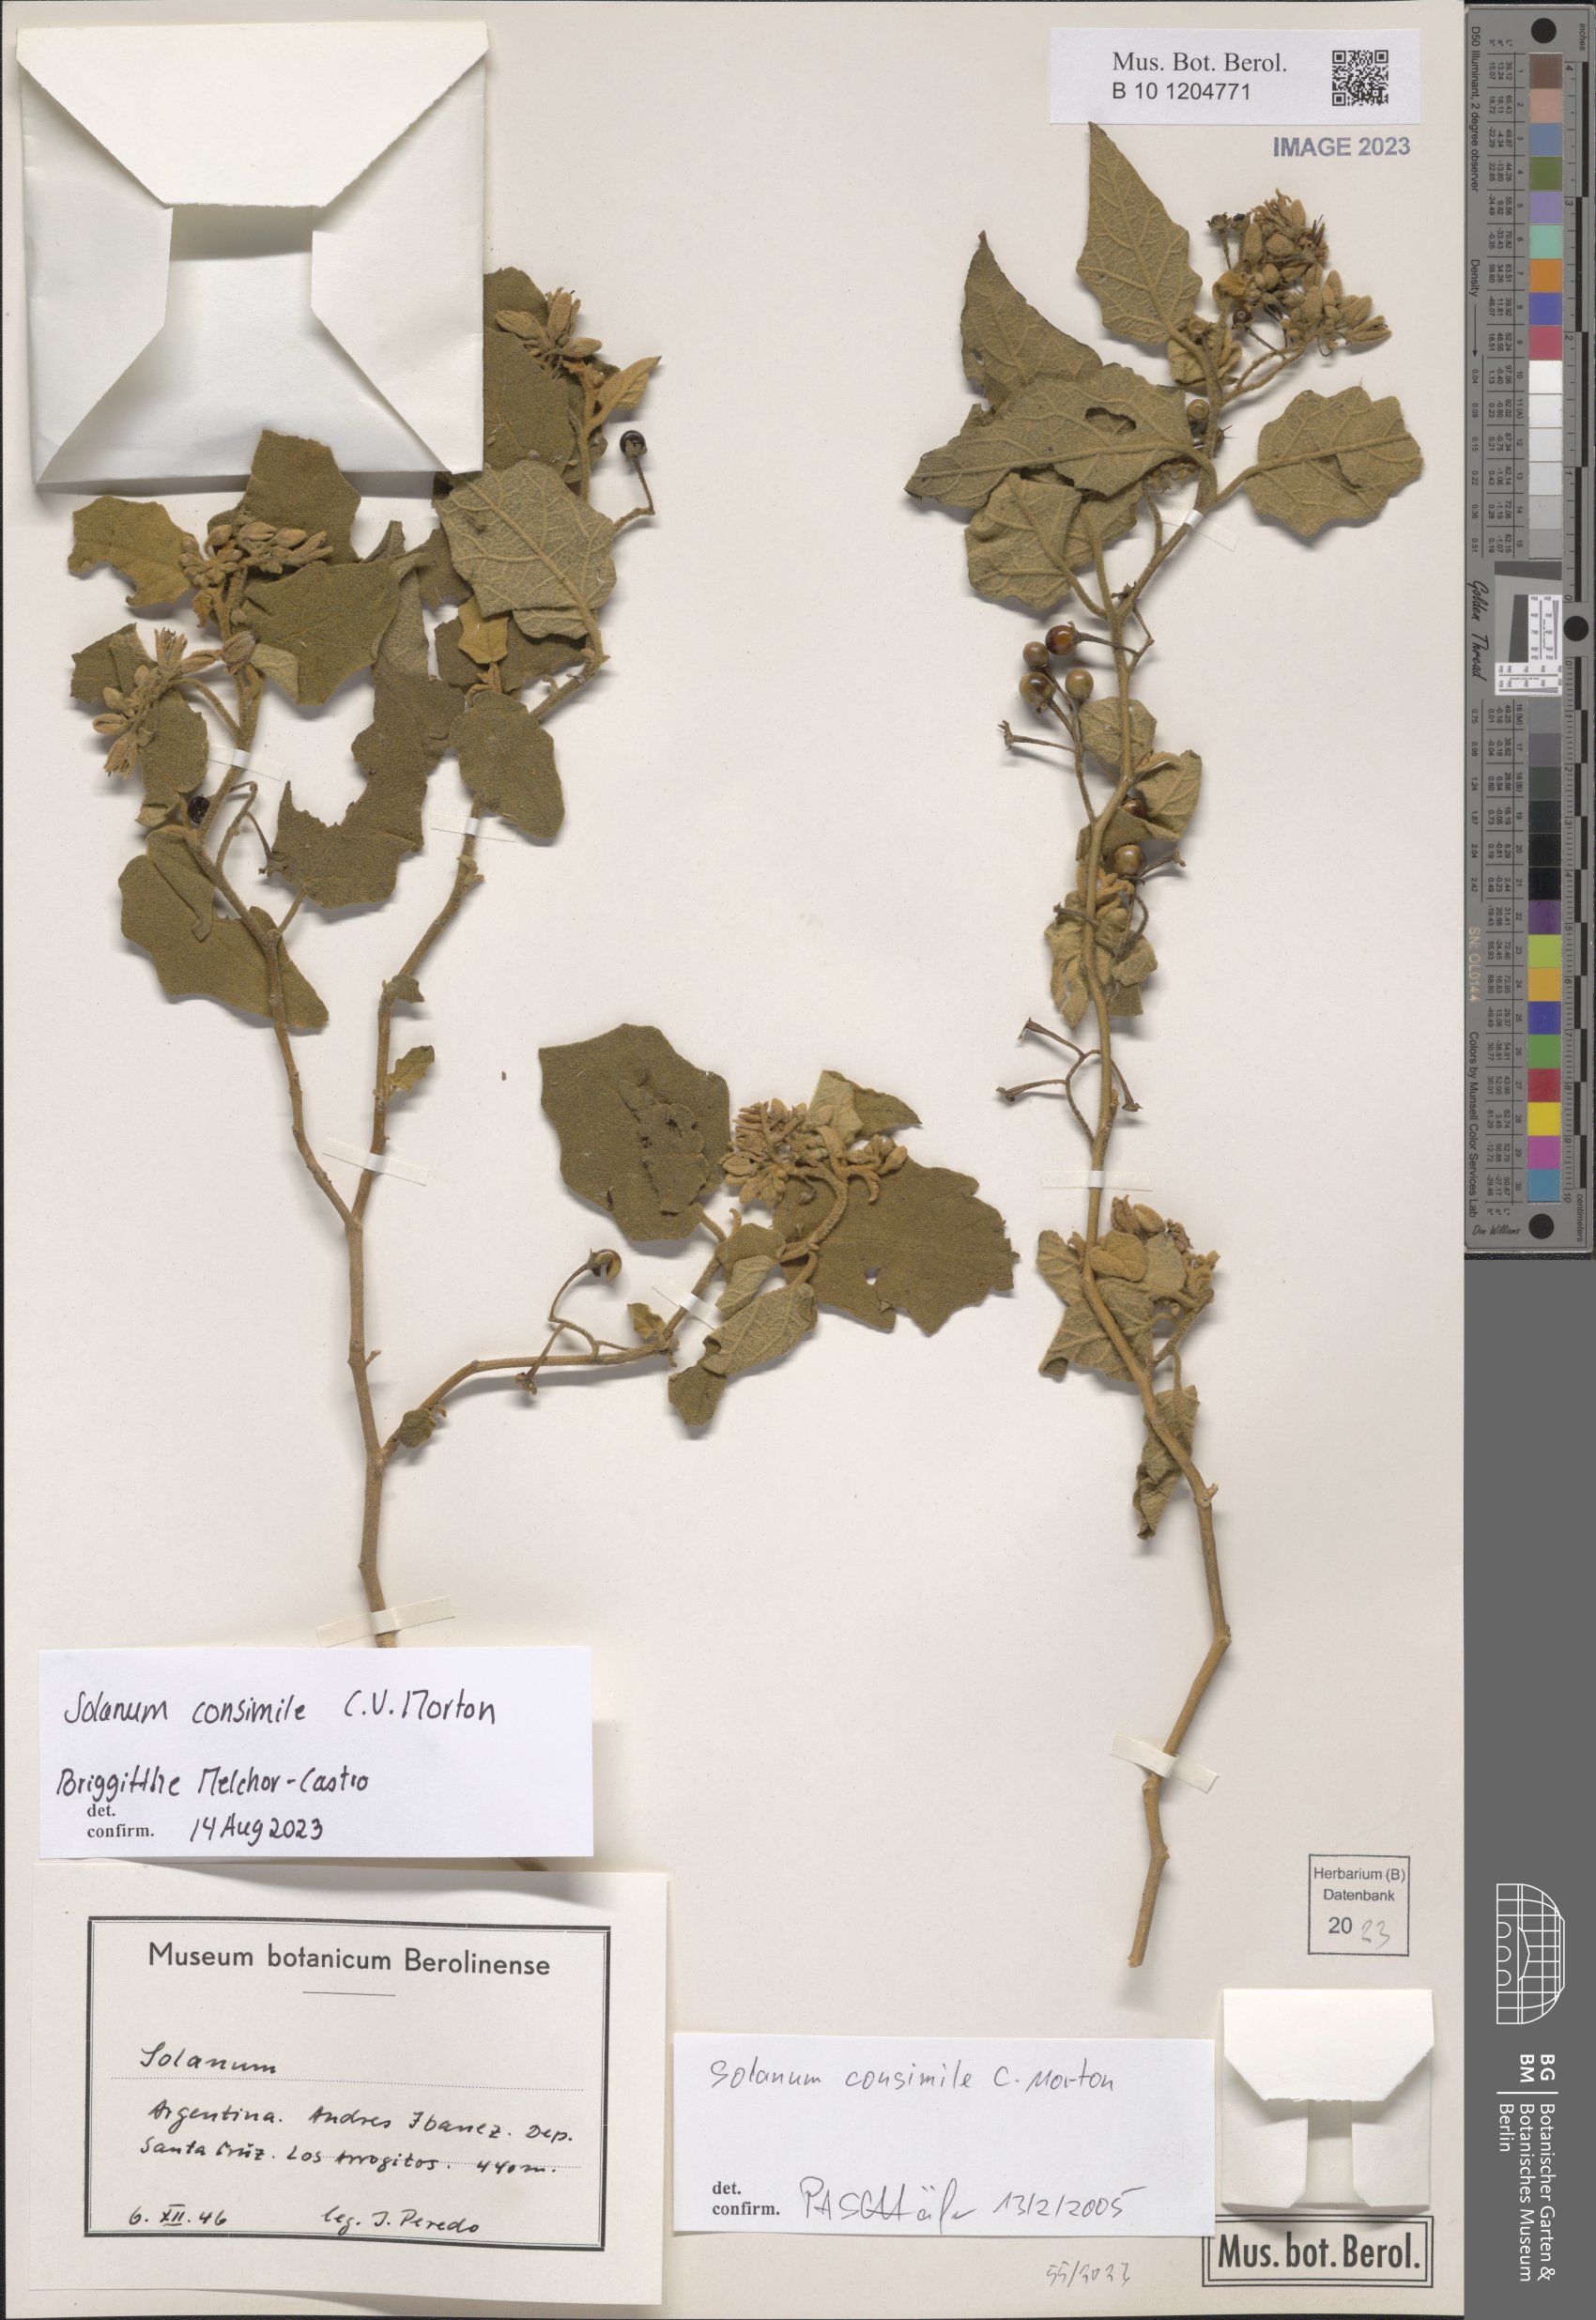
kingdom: Plantae
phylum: Tracheophyta
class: Magnoliopsida
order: Solanales
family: Solanaceae
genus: Solanum
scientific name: Solanum consimile
